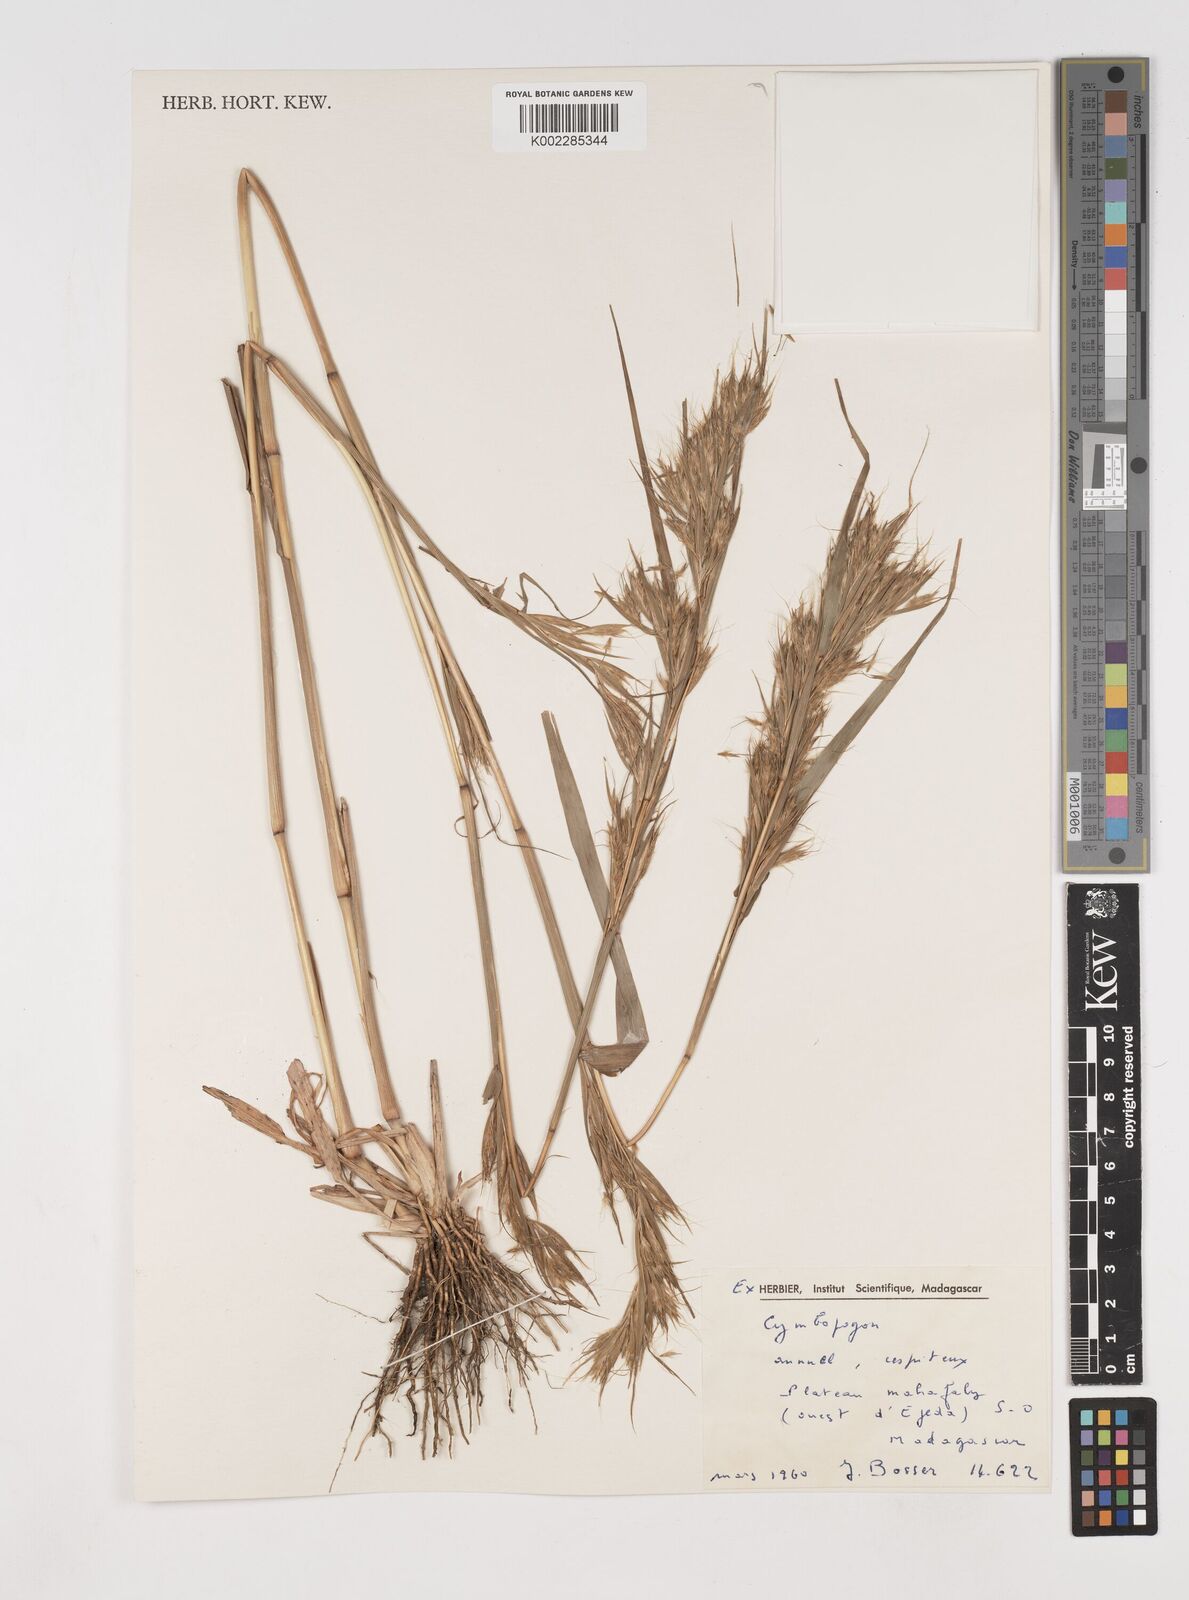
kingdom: Plantae
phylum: Tracheophyta
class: Liliopsida
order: Poales
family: Poaceae
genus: Cymbopogon
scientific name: Cymbopogon
